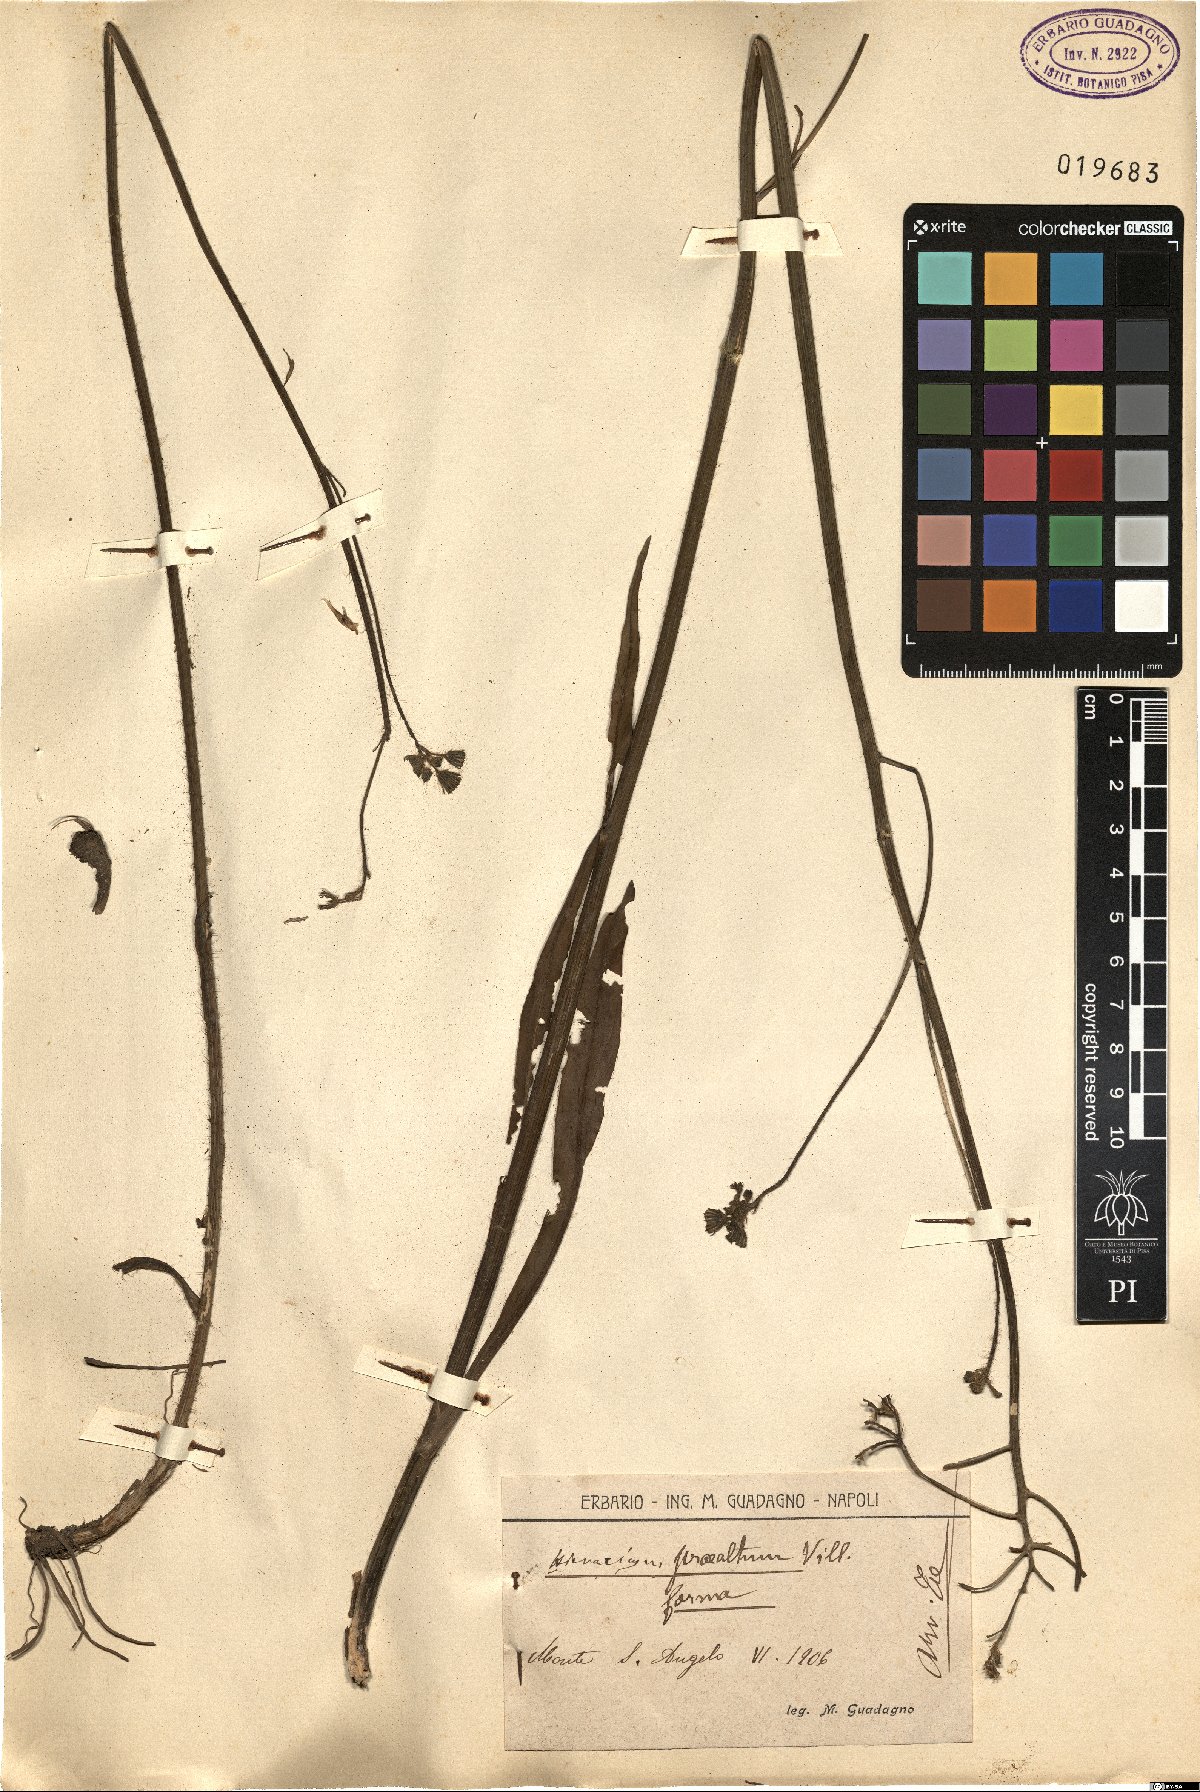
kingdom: Plantae
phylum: Tracheophyta
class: Magnoliopsida
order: Asterales
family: Asteraceae
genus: Pilosella
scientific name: Pilosella piloselloides
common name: Glaucous king-devil
